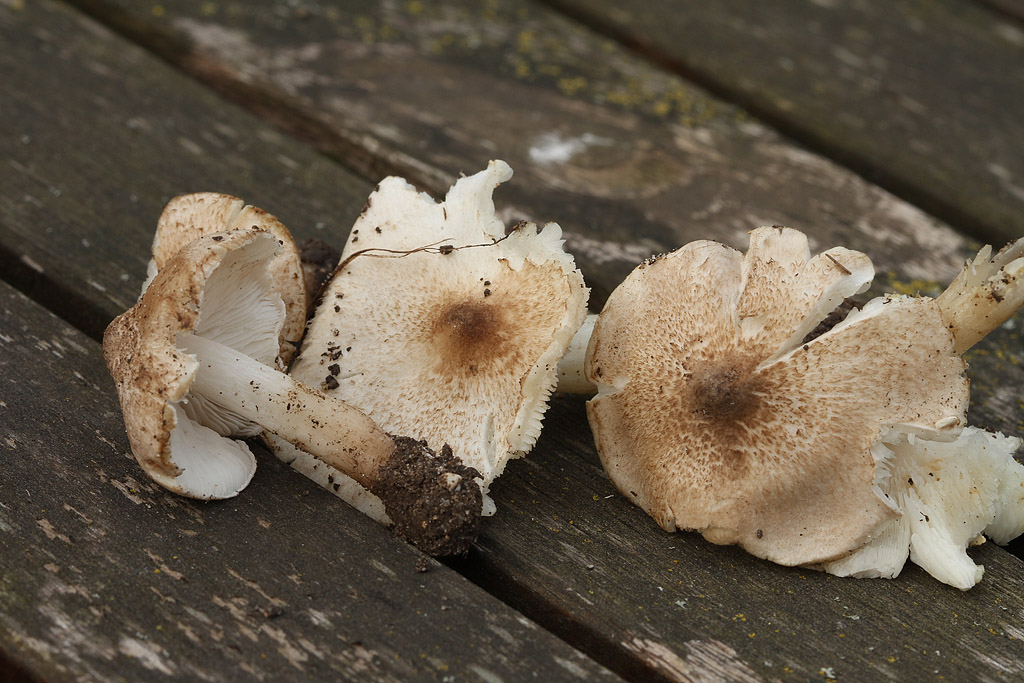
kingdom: Fungi
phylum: Basidiomycota
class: Agaricomycetes
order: Agaricales
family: Tricholomataceae
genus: Tricholoma
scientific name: Tricholoma argyraceum
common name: spids ridderhat
